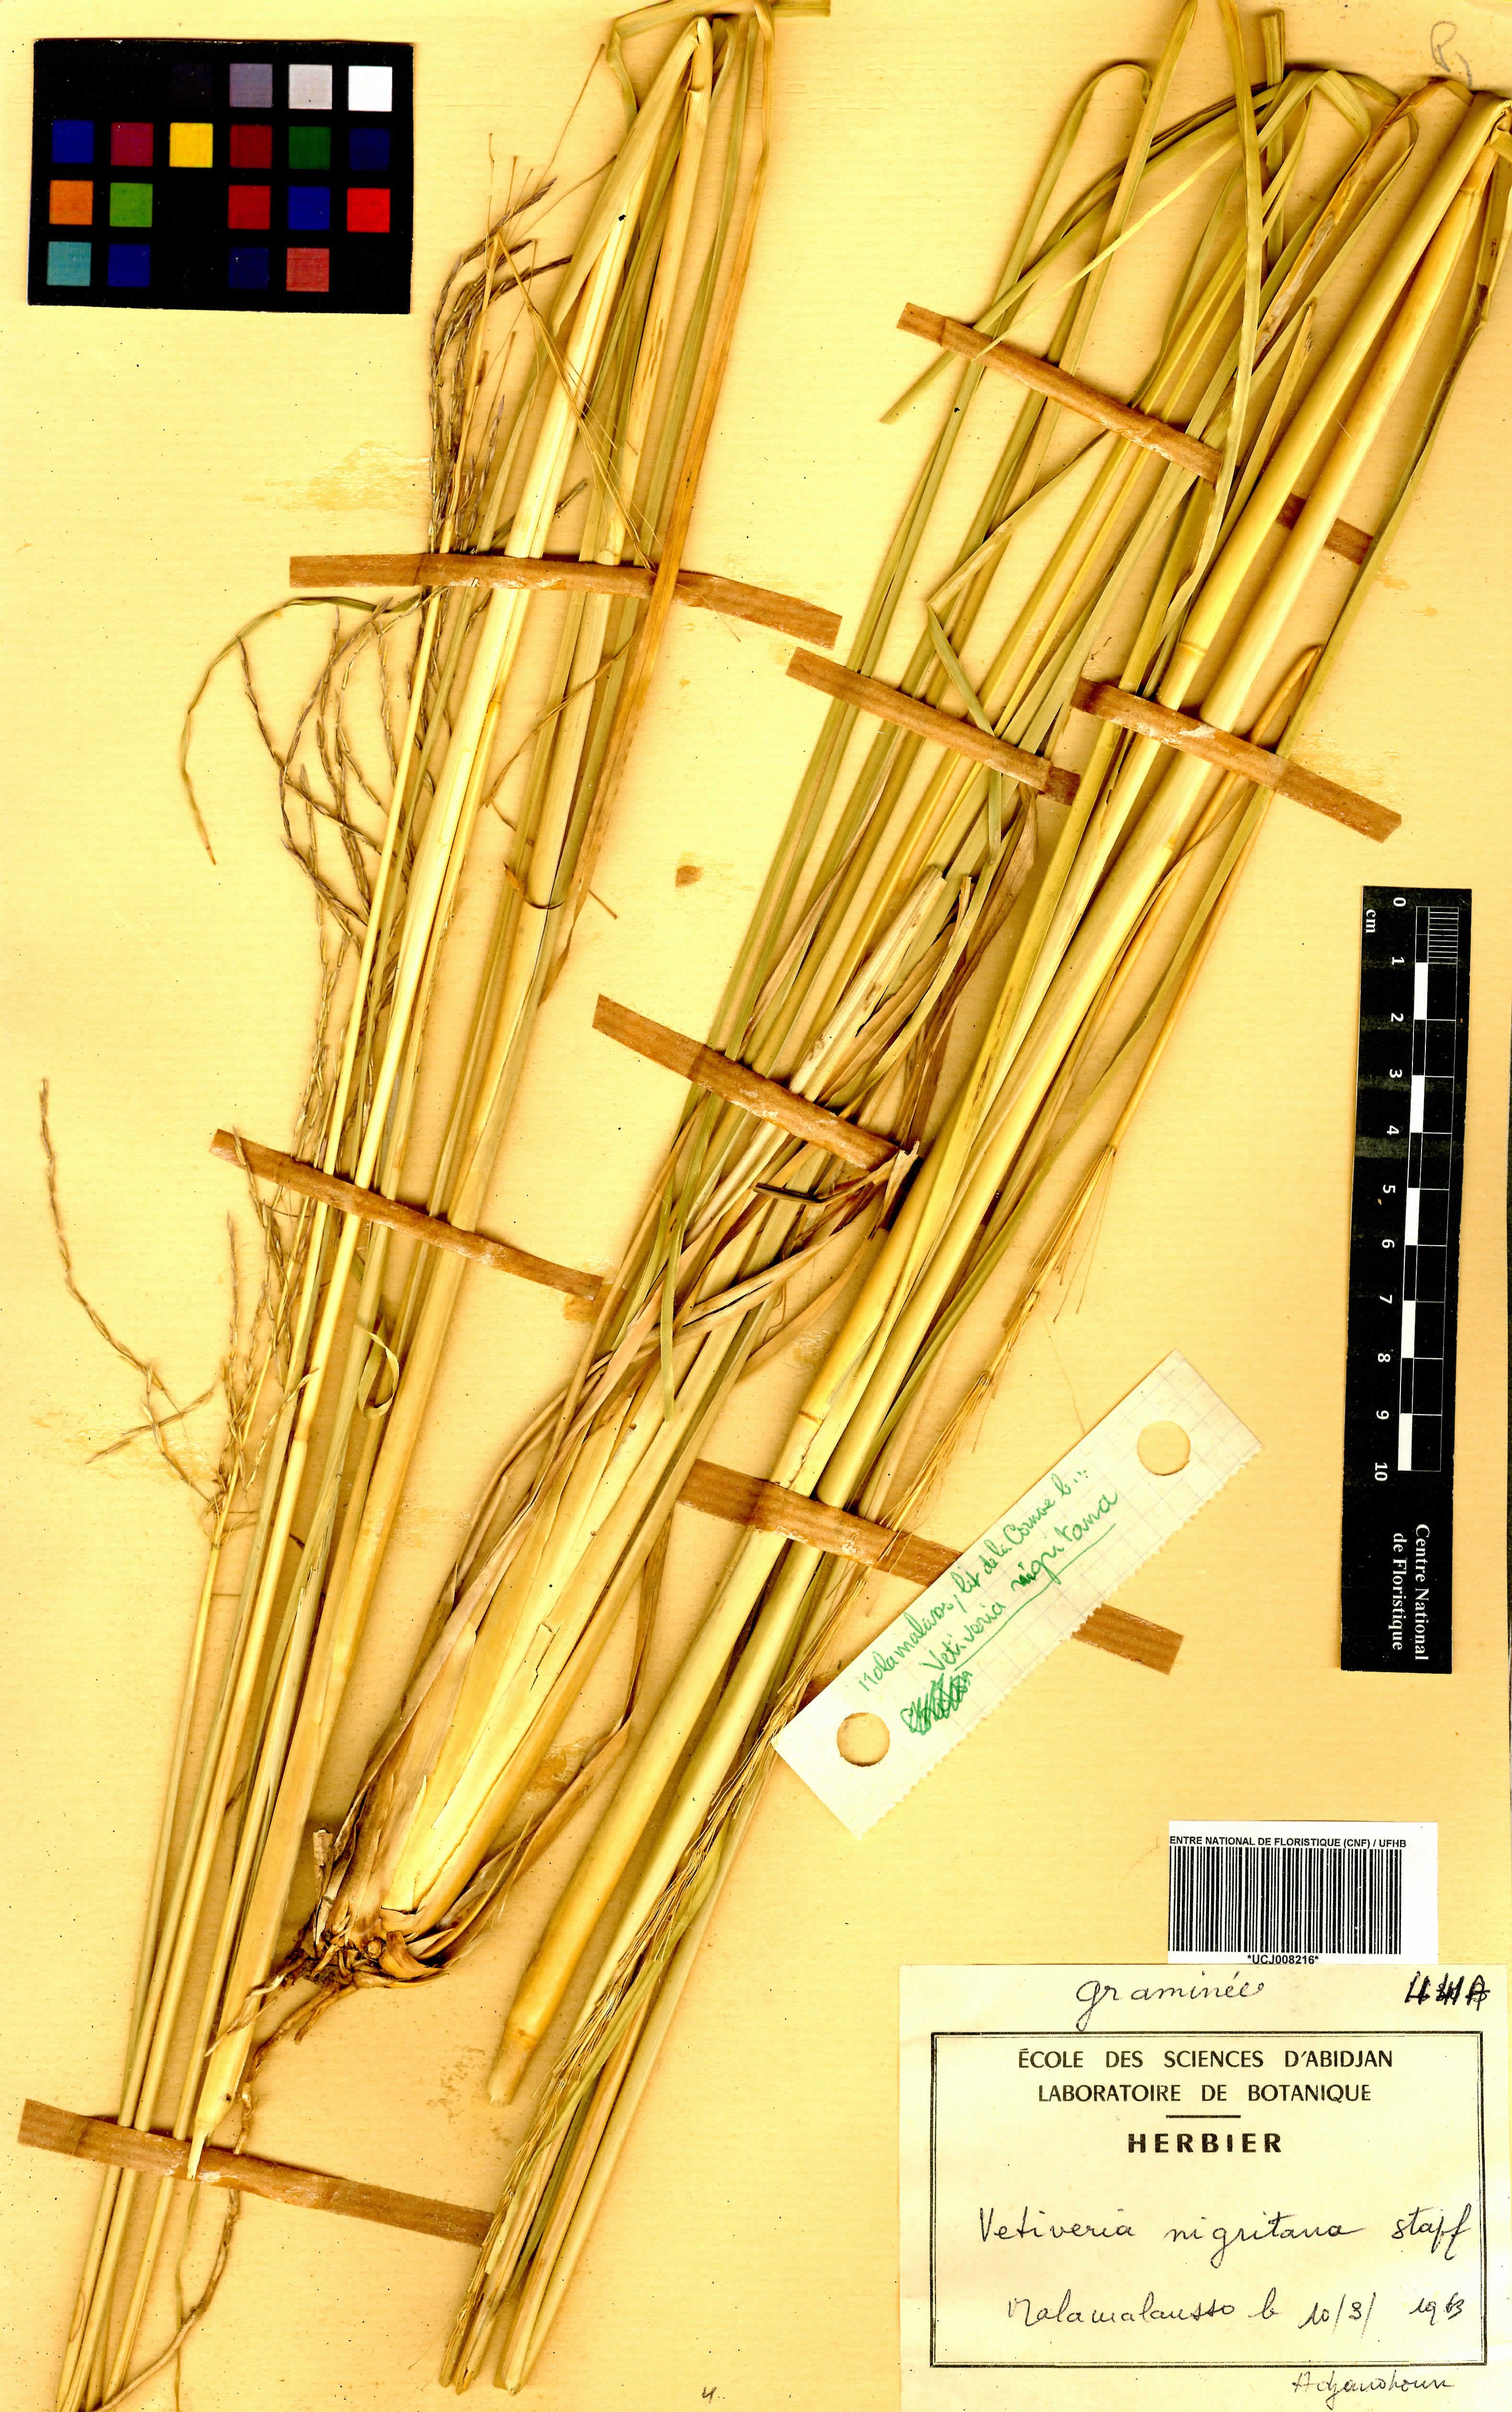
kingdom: Plantae
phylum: Tracheophyta
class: Liliopsida
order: Poales
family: Poaceae
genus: Chrysopogon
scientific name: Chrysopogon fulvibarbis
